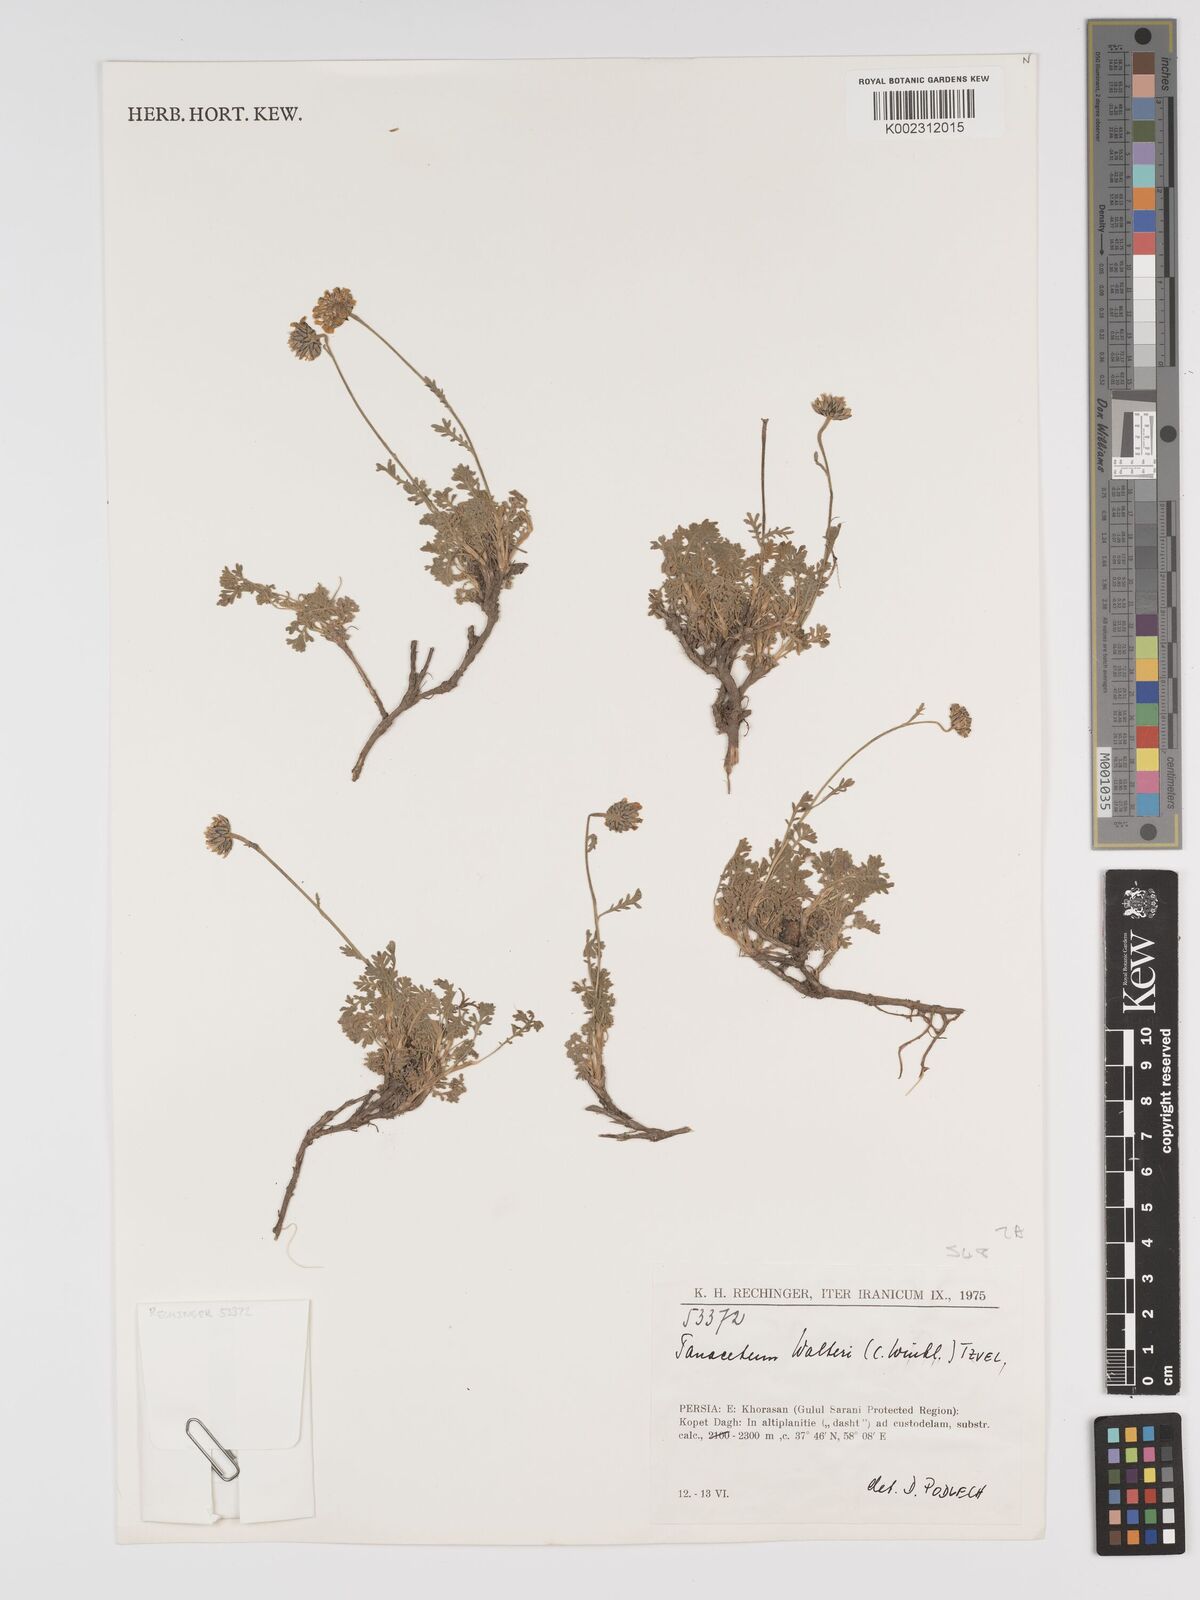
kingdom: Plantae
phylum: Tracheophyta
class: Magnoliopsida
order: Asterales
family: Asteraceae
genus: Tanacetum
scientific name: Tanacetum walteri
